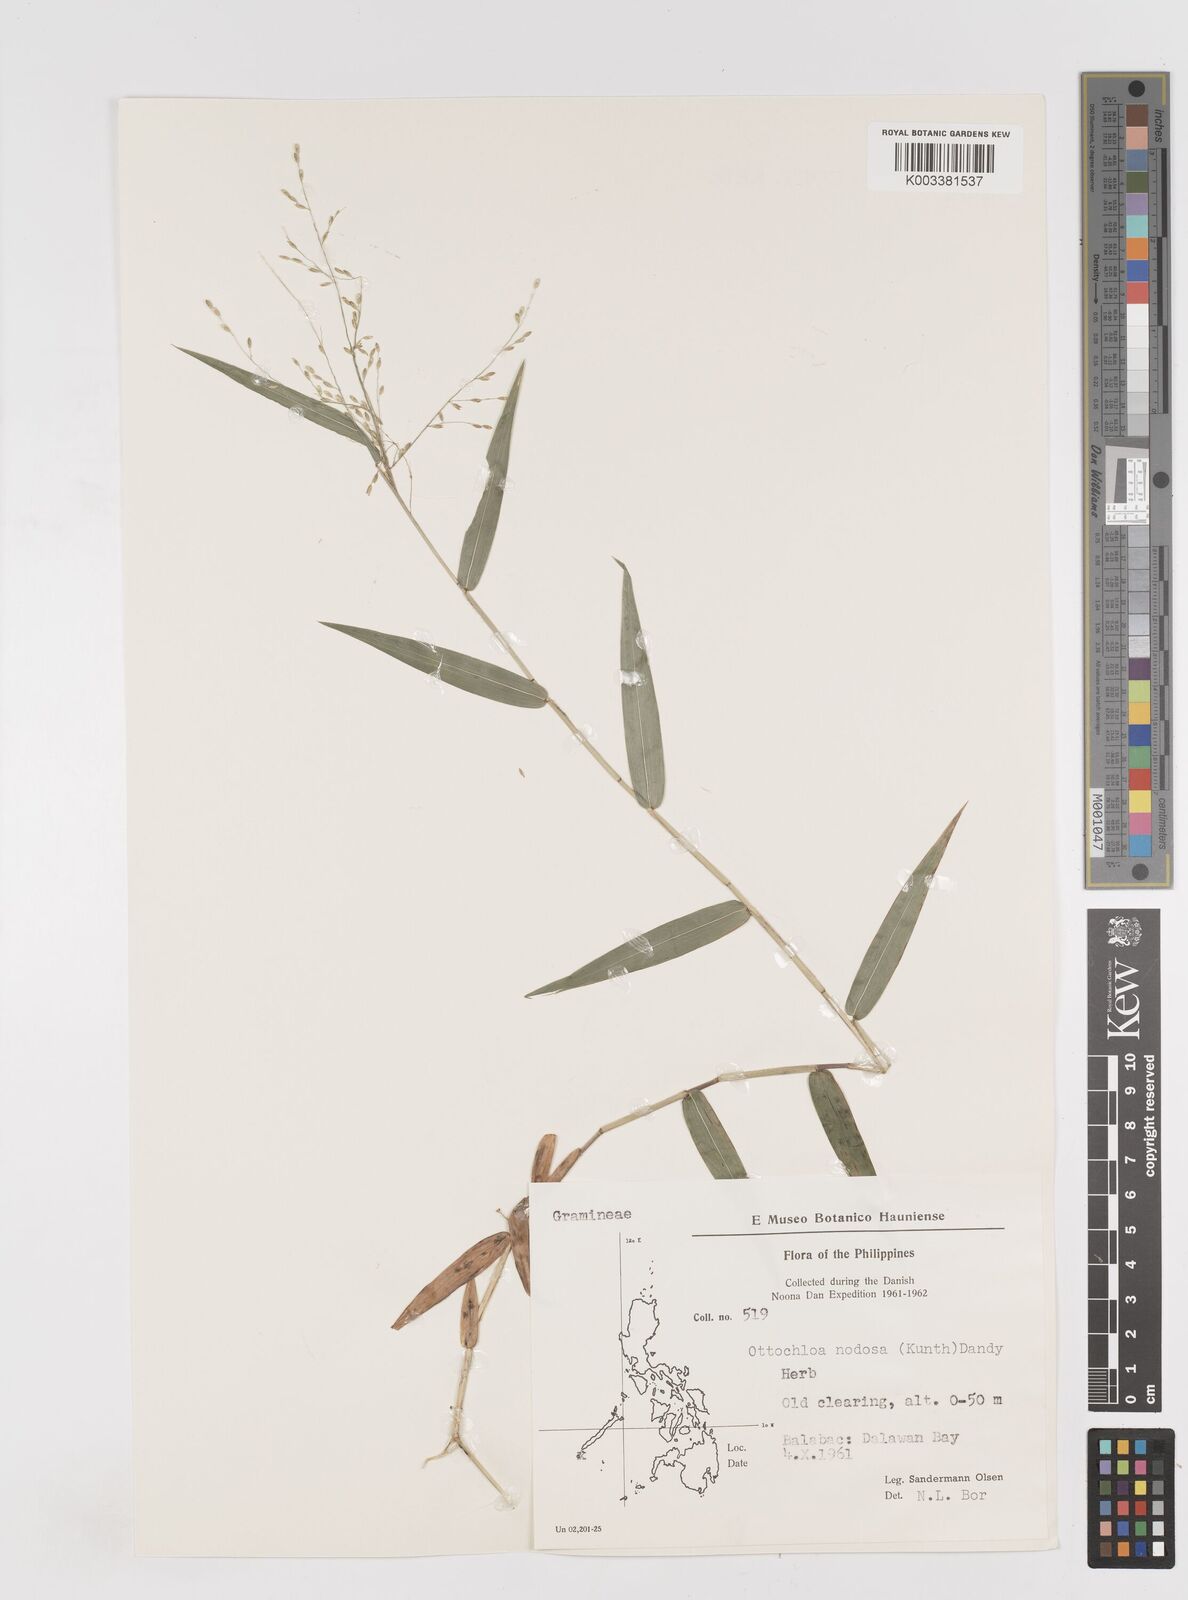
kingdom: Plantae
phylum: Tracheophyta
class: Liliopsida
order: Poales
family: Poaceae
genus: Ottochloa
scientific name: Ottochloa nodosa
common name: Slender-panic grass
